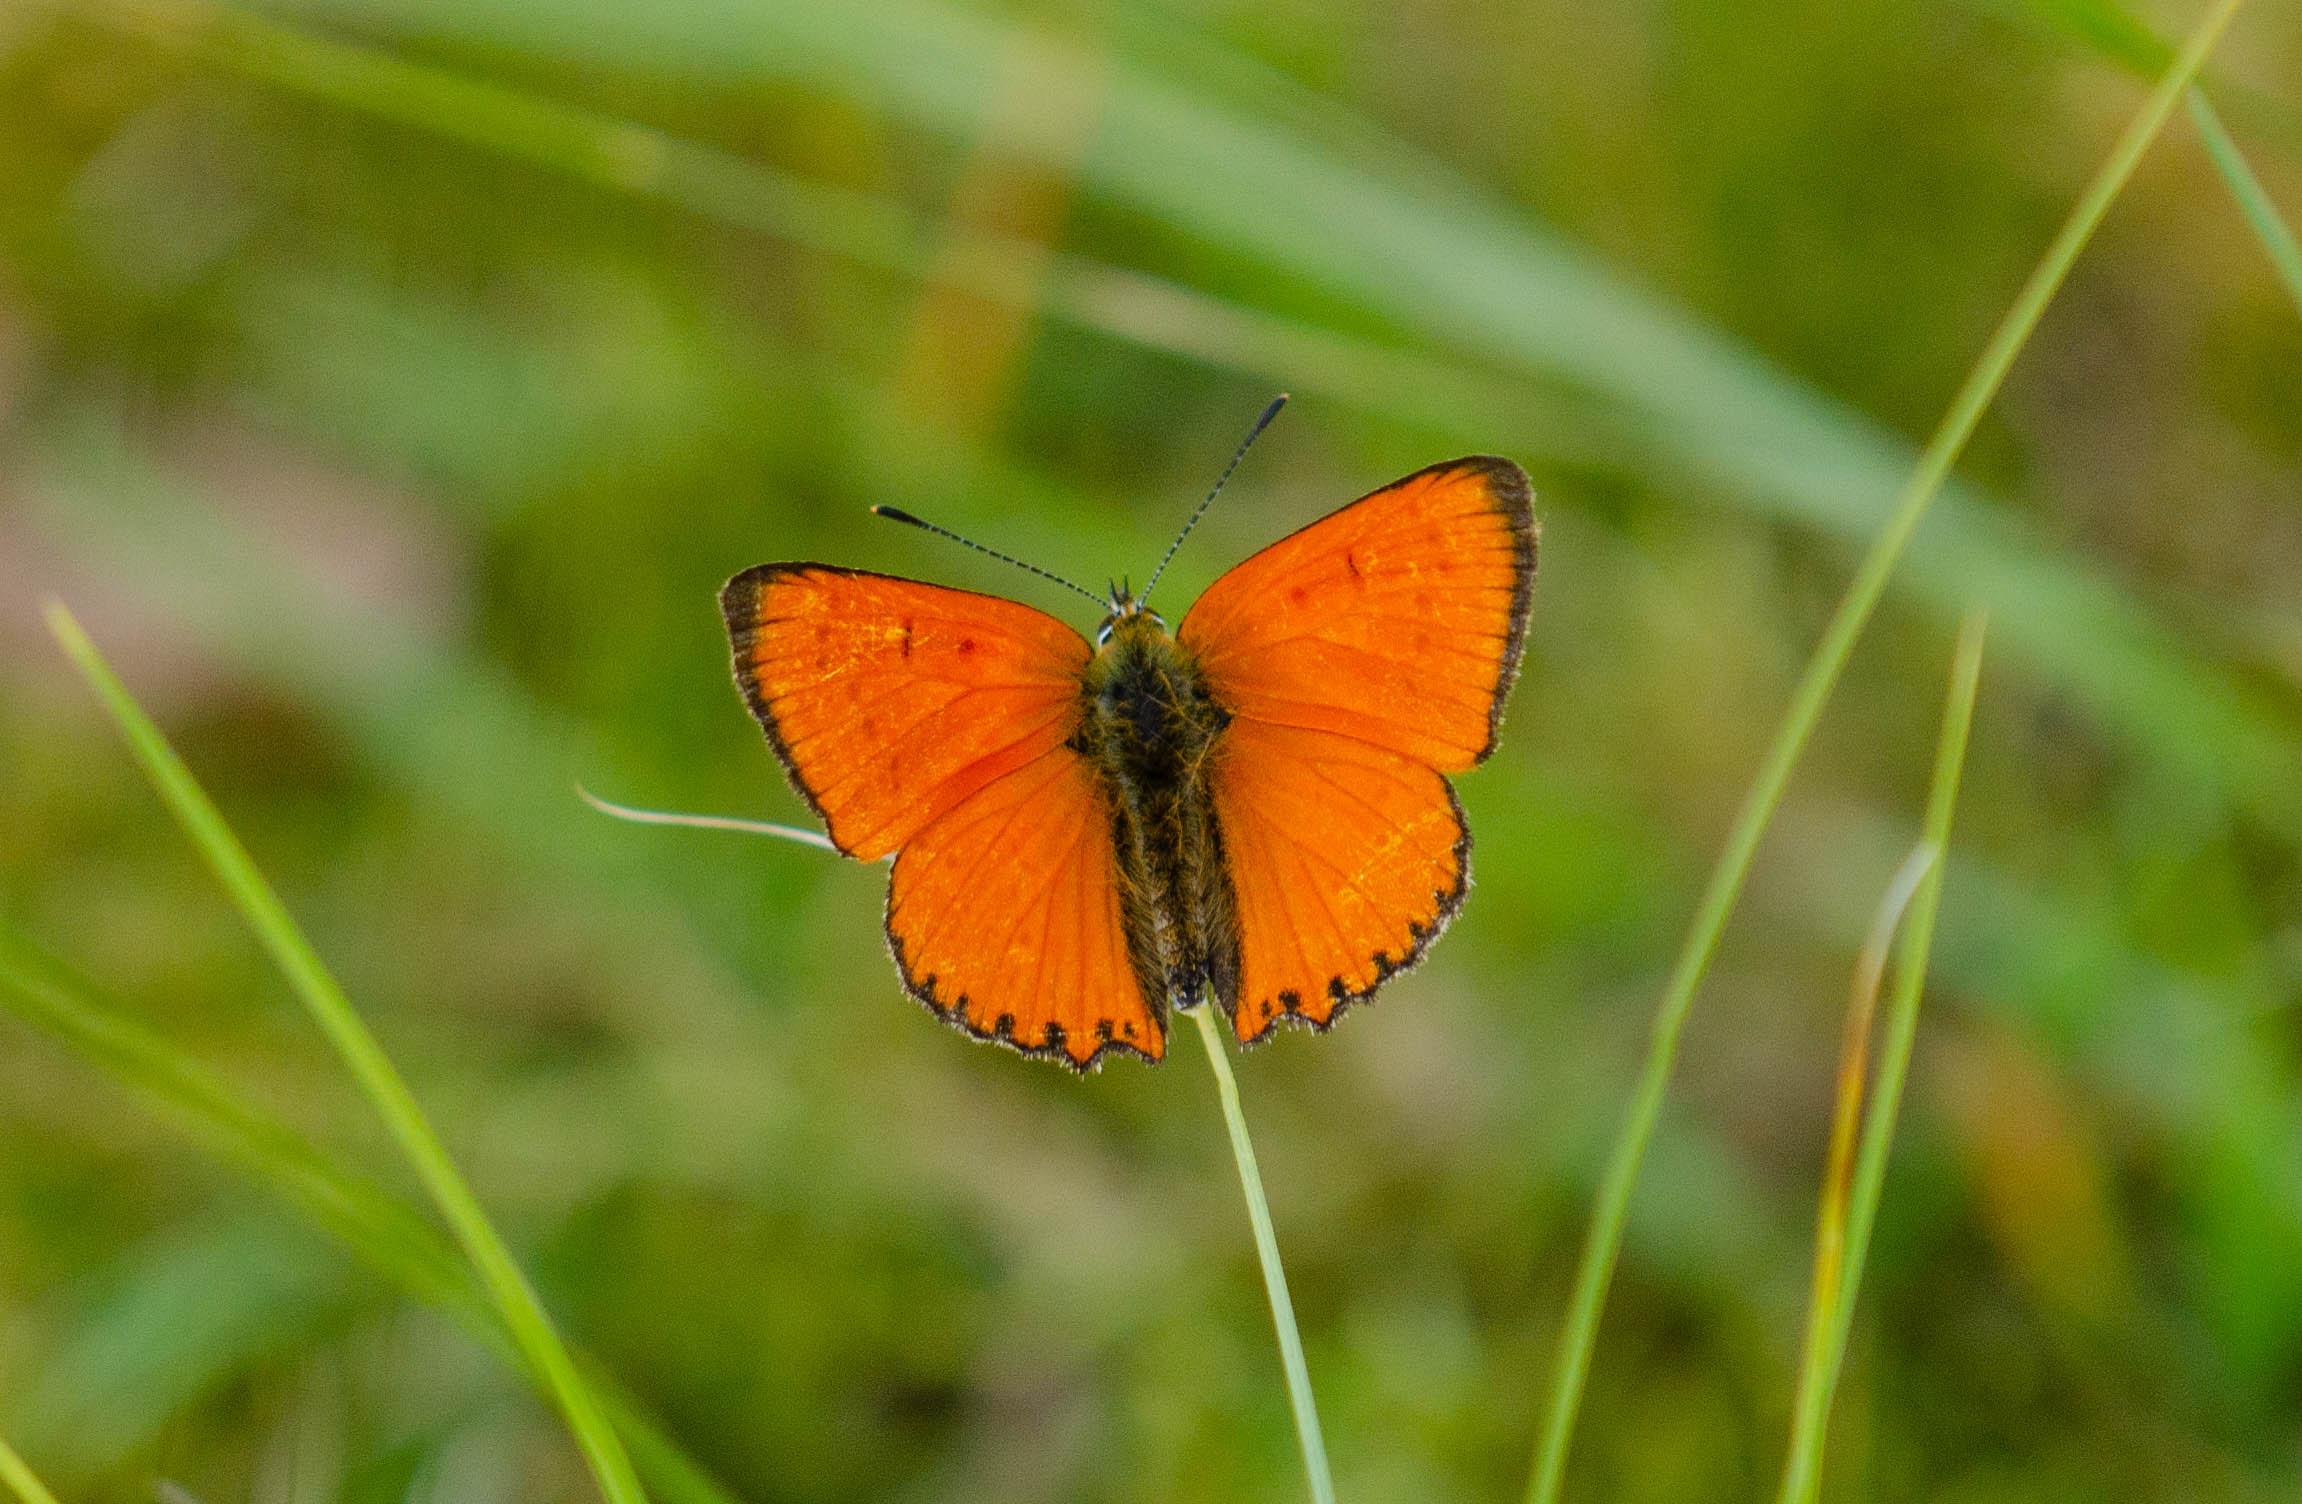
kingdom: Animalia
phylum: Arthropoda
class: Insecta
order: Lepidoptera
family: Lycaenidae
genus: Lycaena
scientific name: Lycaena virgaureae
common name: Dukatsommerfugl
